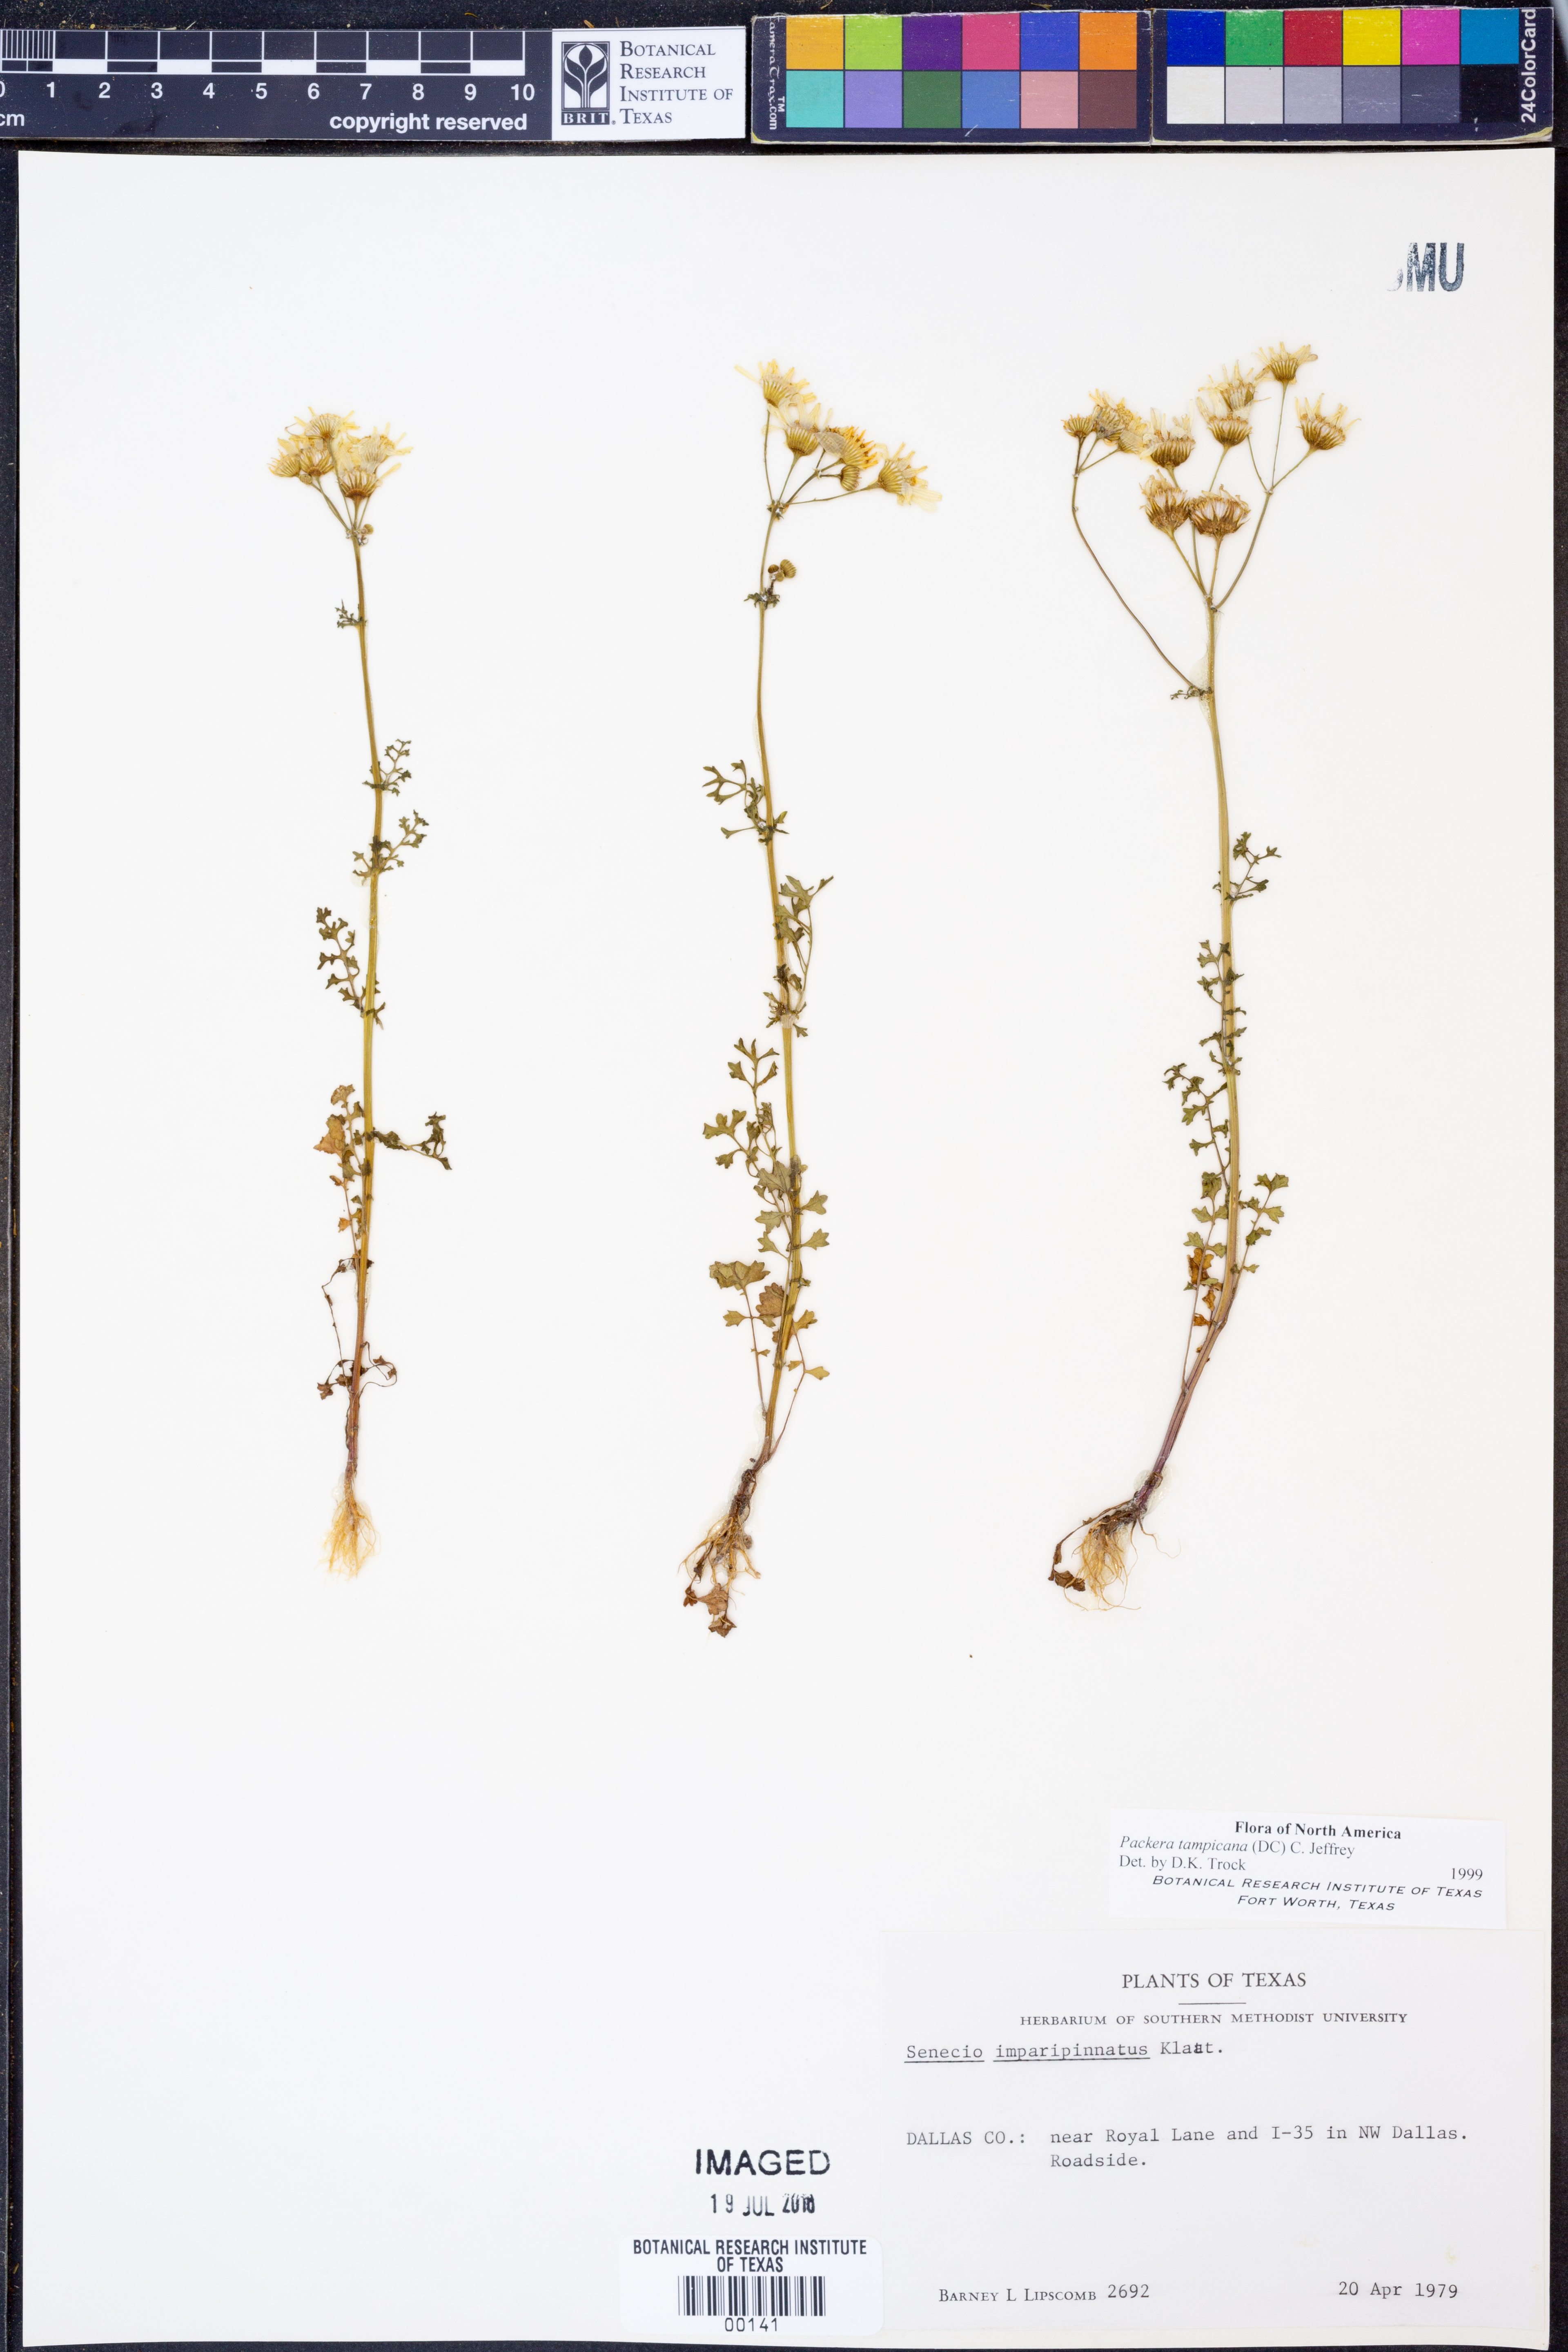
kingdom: Plantae
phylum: Tracheophyta
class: Magnoliopsida
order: Asterales
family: Asteraceae
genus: Packera
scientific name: Packera tampicana
